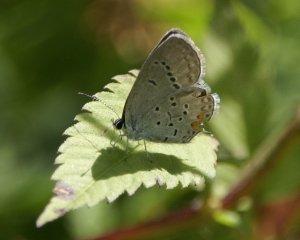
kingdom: Animalia
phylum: Arthropoda
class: Insecta
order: Lepidoptera
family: Lycaenidae
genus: Elkalyce
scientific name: Elkalyce comyntas
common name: Eastern Tailed-Blue
